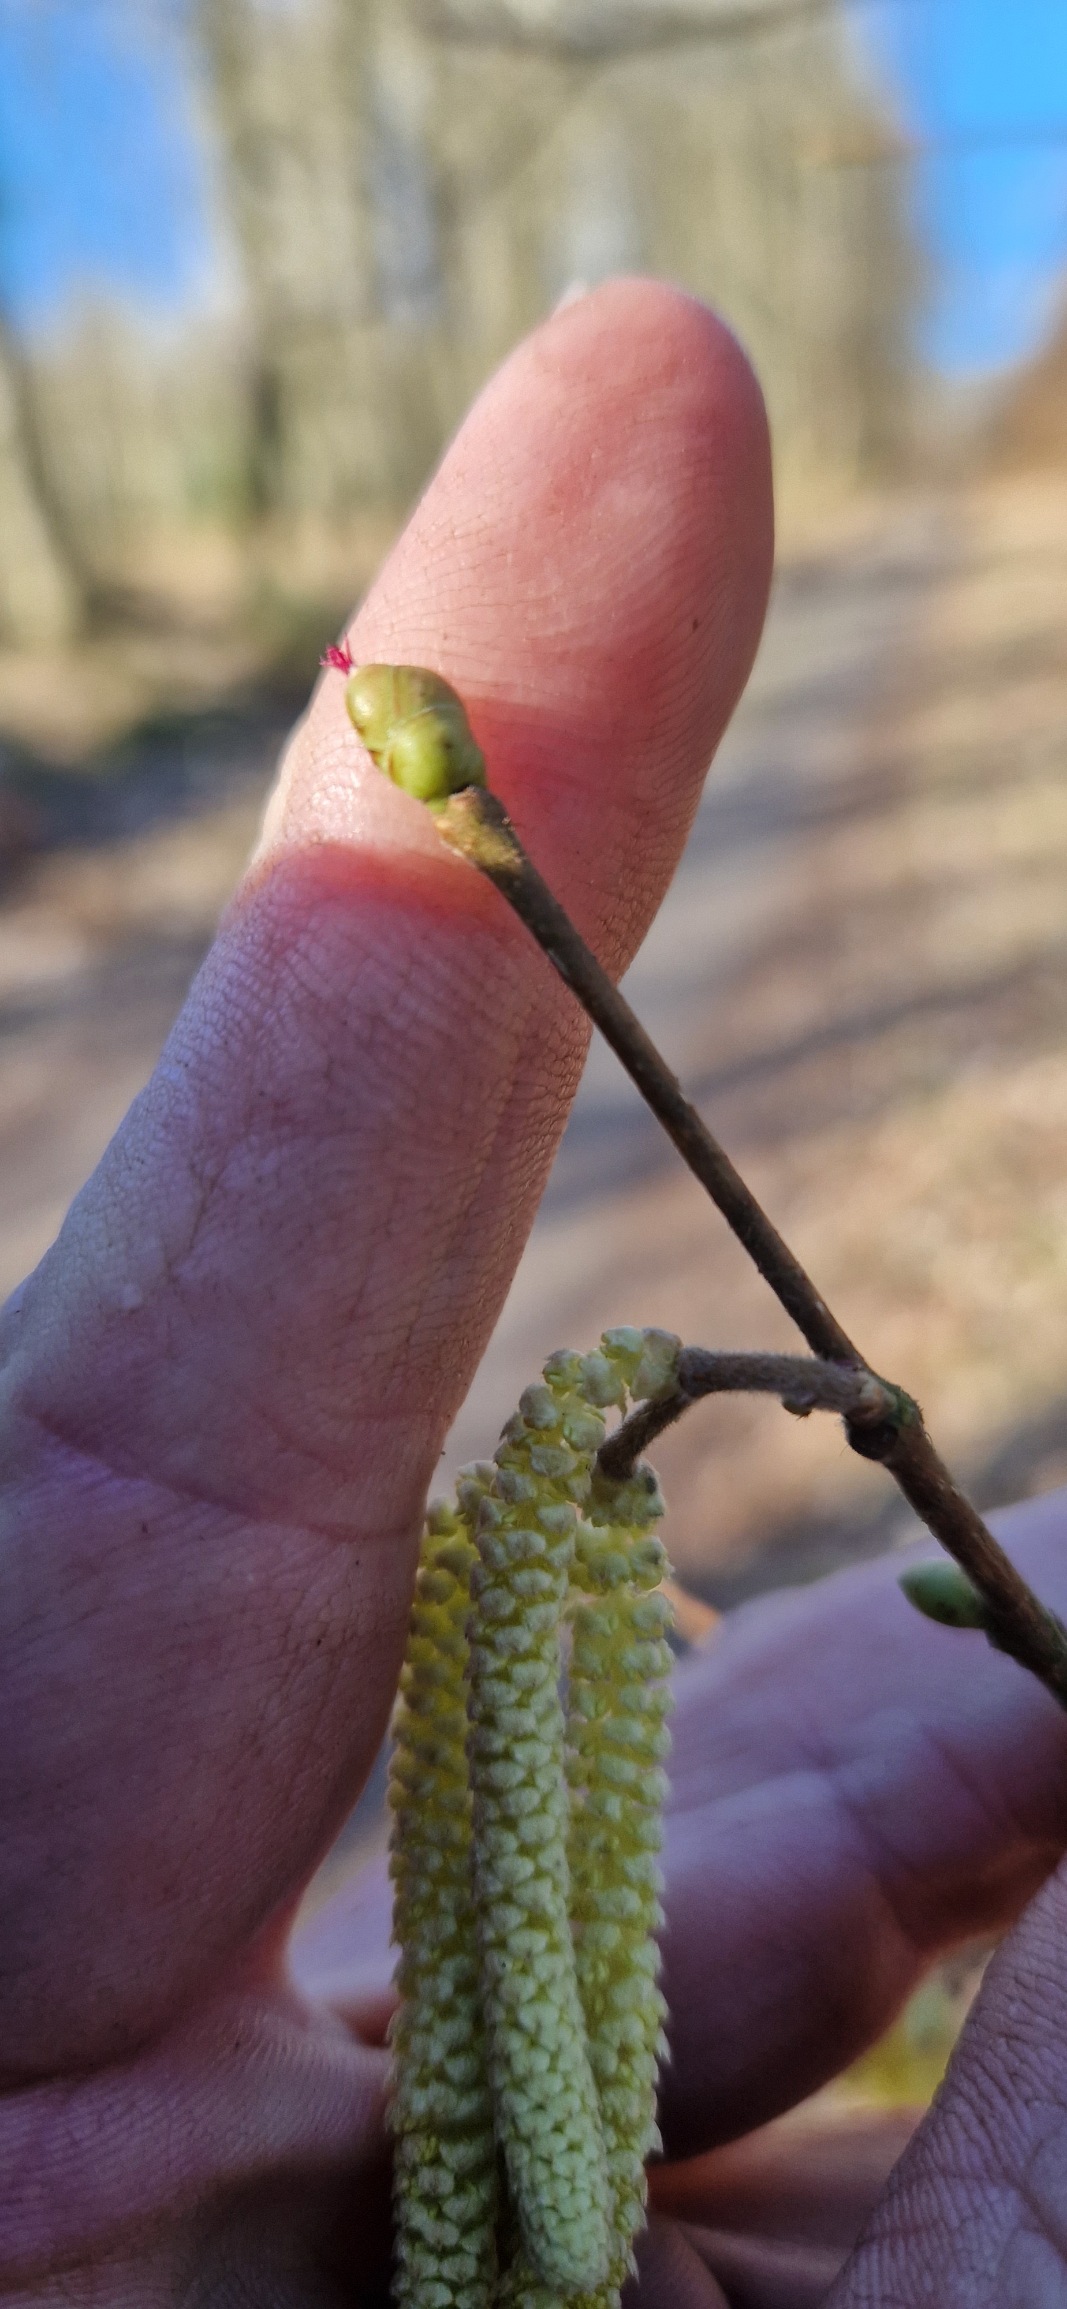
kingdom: Plantae
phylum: Tracheophyta
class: Magnoliopsida
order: Fagales
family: Betulaceae
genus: Corylus
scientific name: Corylus avellana
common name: Hassel
